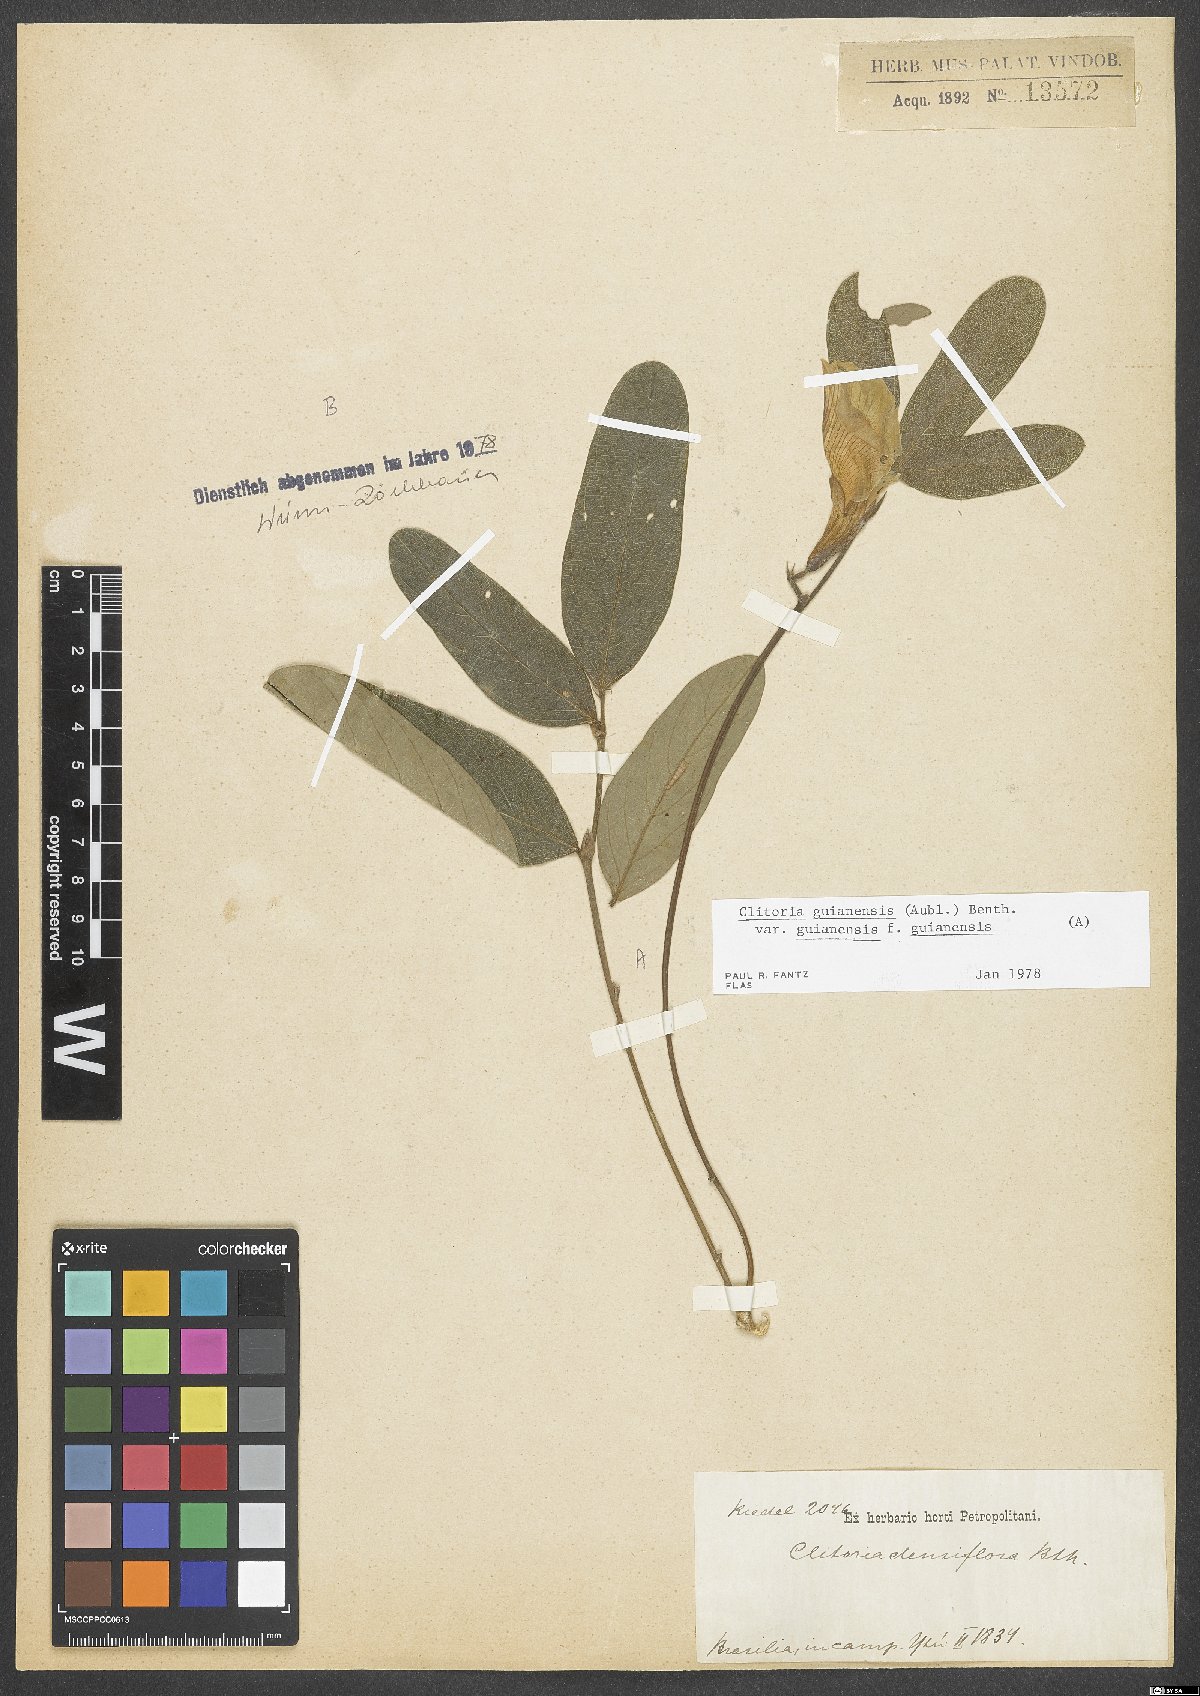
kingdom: Plantae
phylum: Tracheophyta
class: Magnoliopsida
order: Fabales
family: Fabaceae
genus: Clitoria
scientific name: Clitoria simplicifolia
